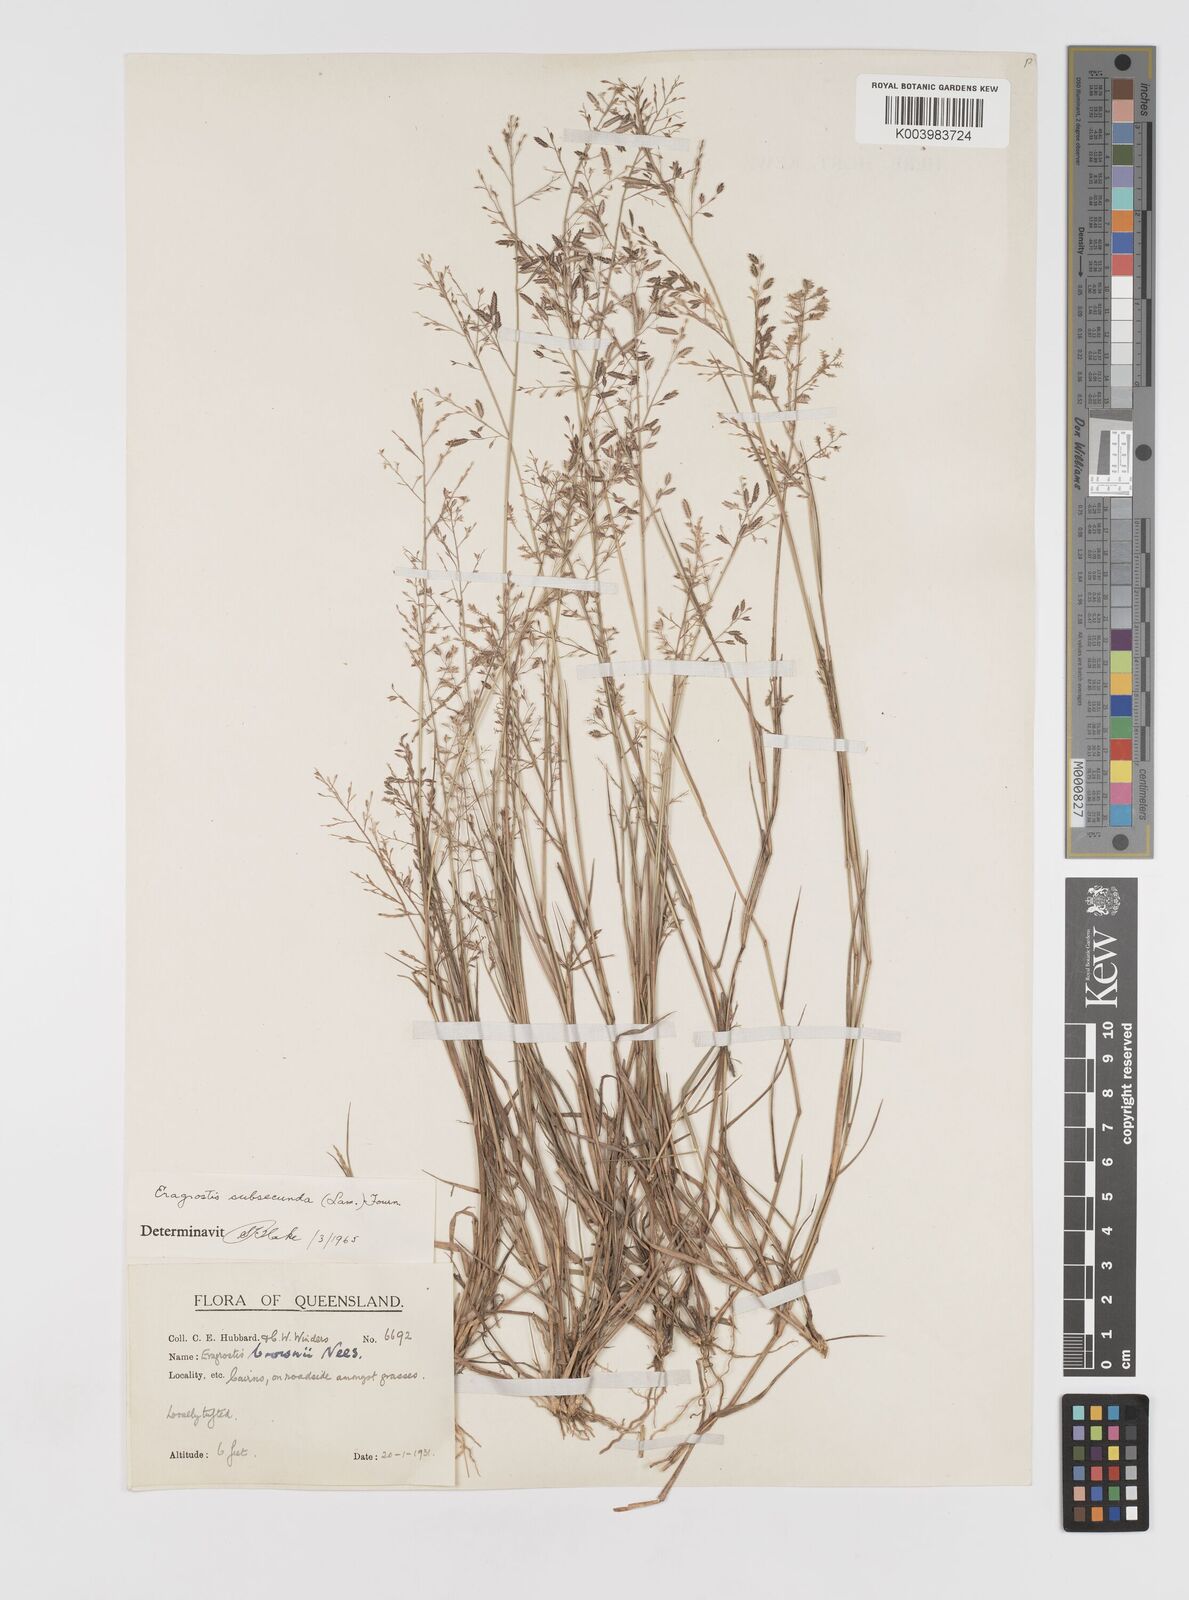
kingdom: Plantae
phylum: Tracheophyta
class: Liliopsida
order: Poales
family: Poaceae
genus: Eragrostis
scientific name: Eragrostis subsecunda
